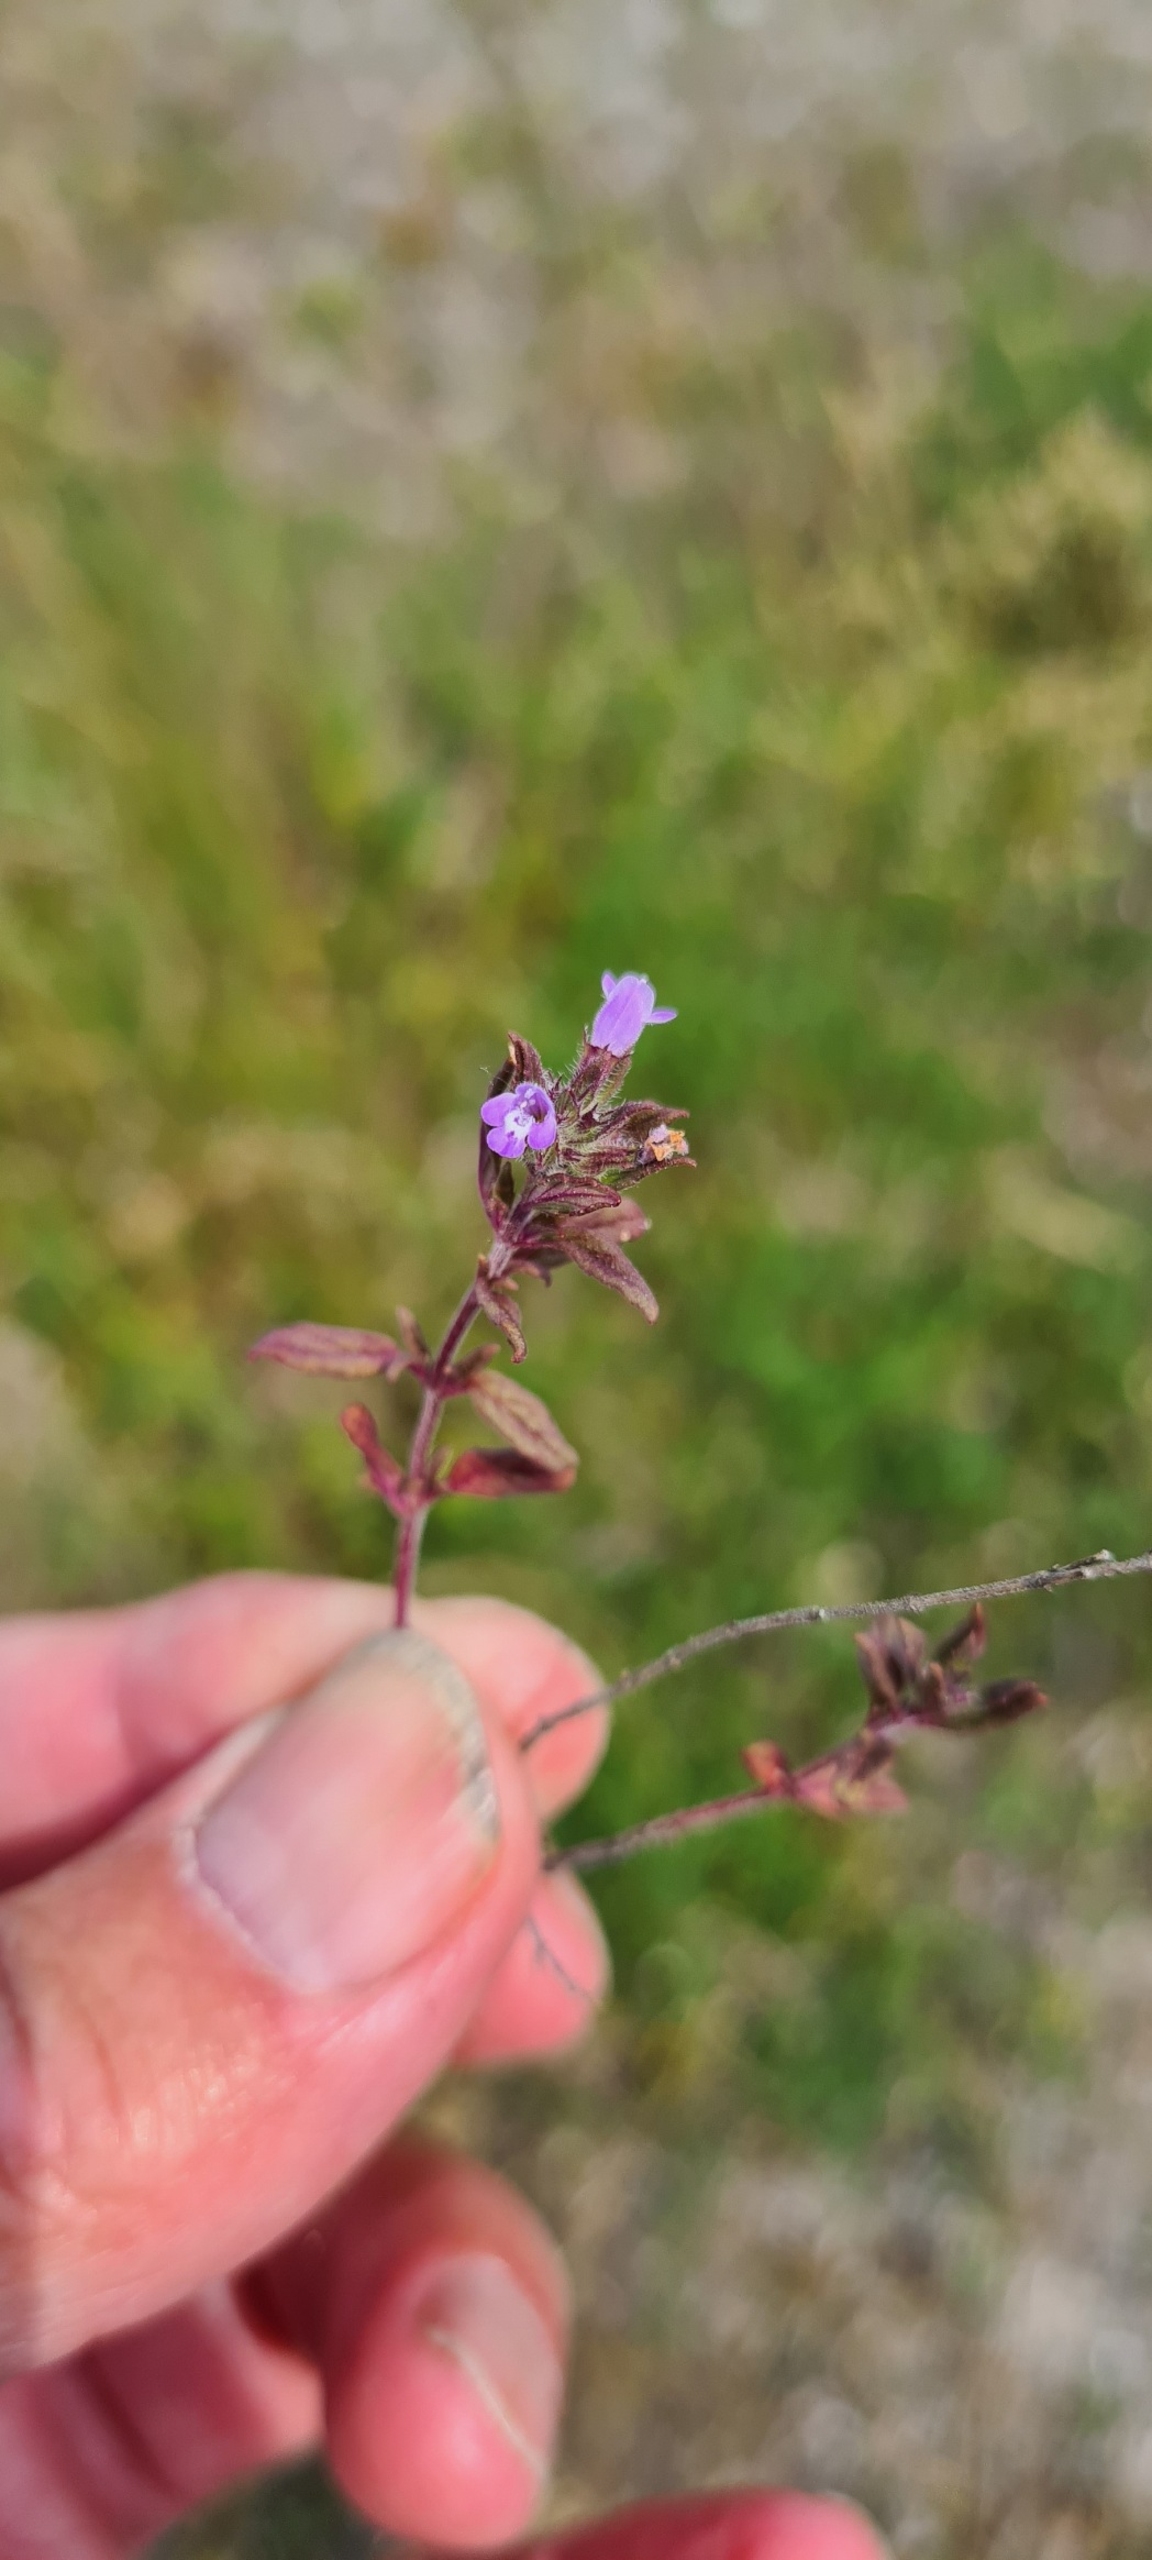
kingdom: Plantae
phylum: Tracheophyta
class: Magnoliopsida
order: Lamiales
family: Lamiaceae
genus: Clinopodium
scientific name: Clinopodium acinos
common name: Voldtimian
